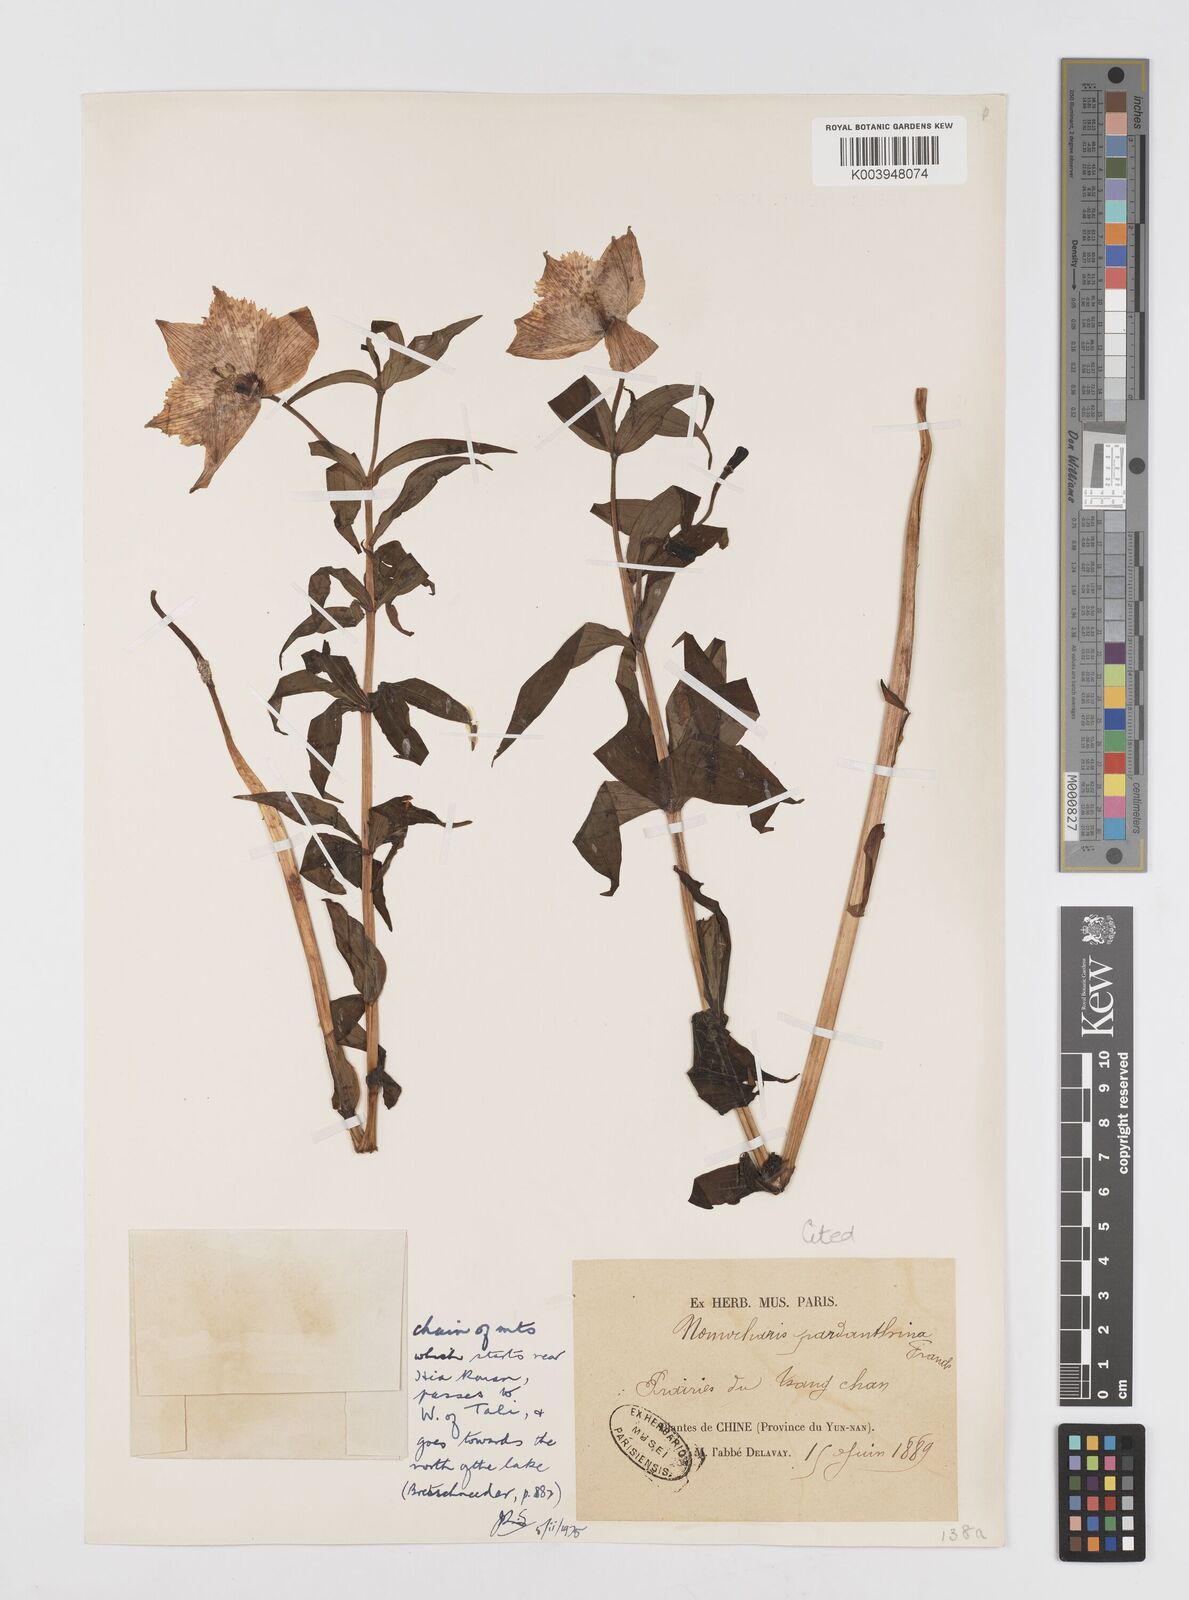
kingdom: Plantae
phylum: Tracheophyta
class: Liliopsida
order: Liliales
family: Liliaceae
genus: Lilium
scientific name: Lilium pardanthinum
